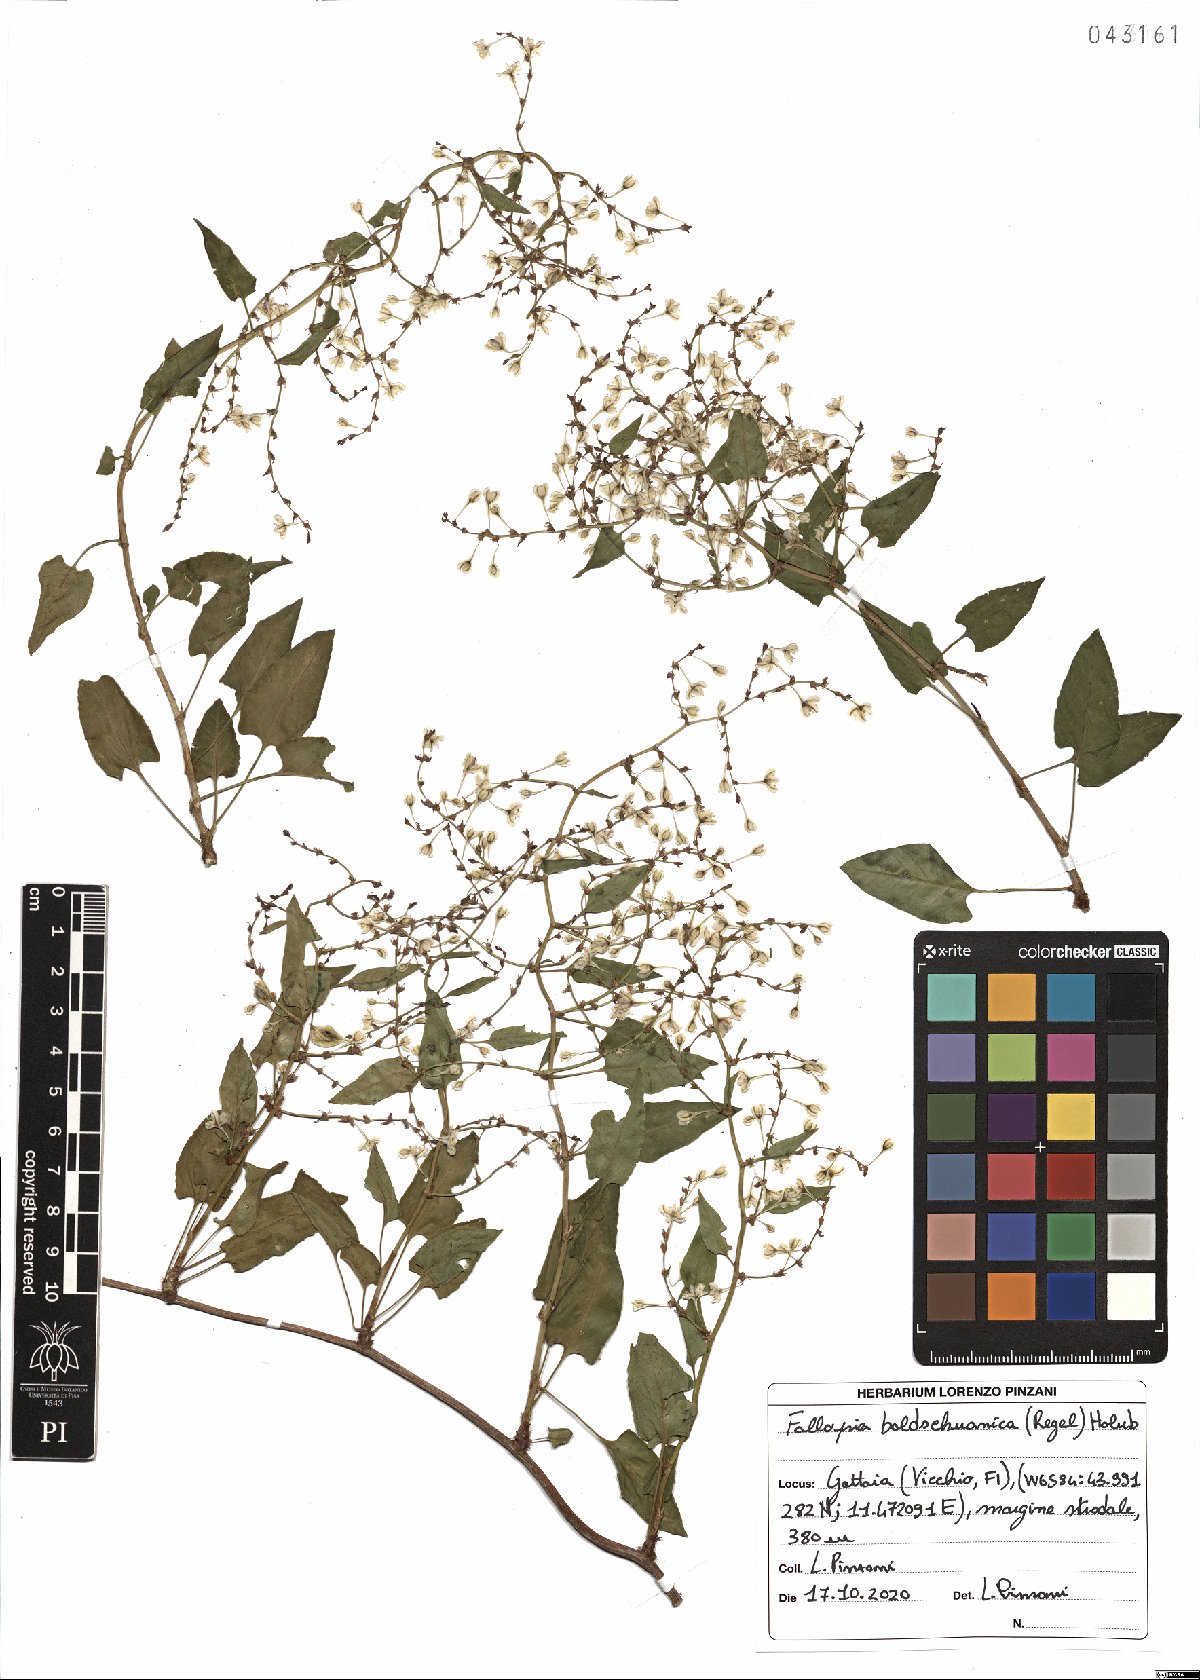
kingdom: Plantae
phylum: Tracheophyta
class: Magnoliopsida
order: Caryophyllales
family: Polygonaceae
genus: Fallopia
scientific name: Fallopia baldschuanica
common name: Russian-vine
